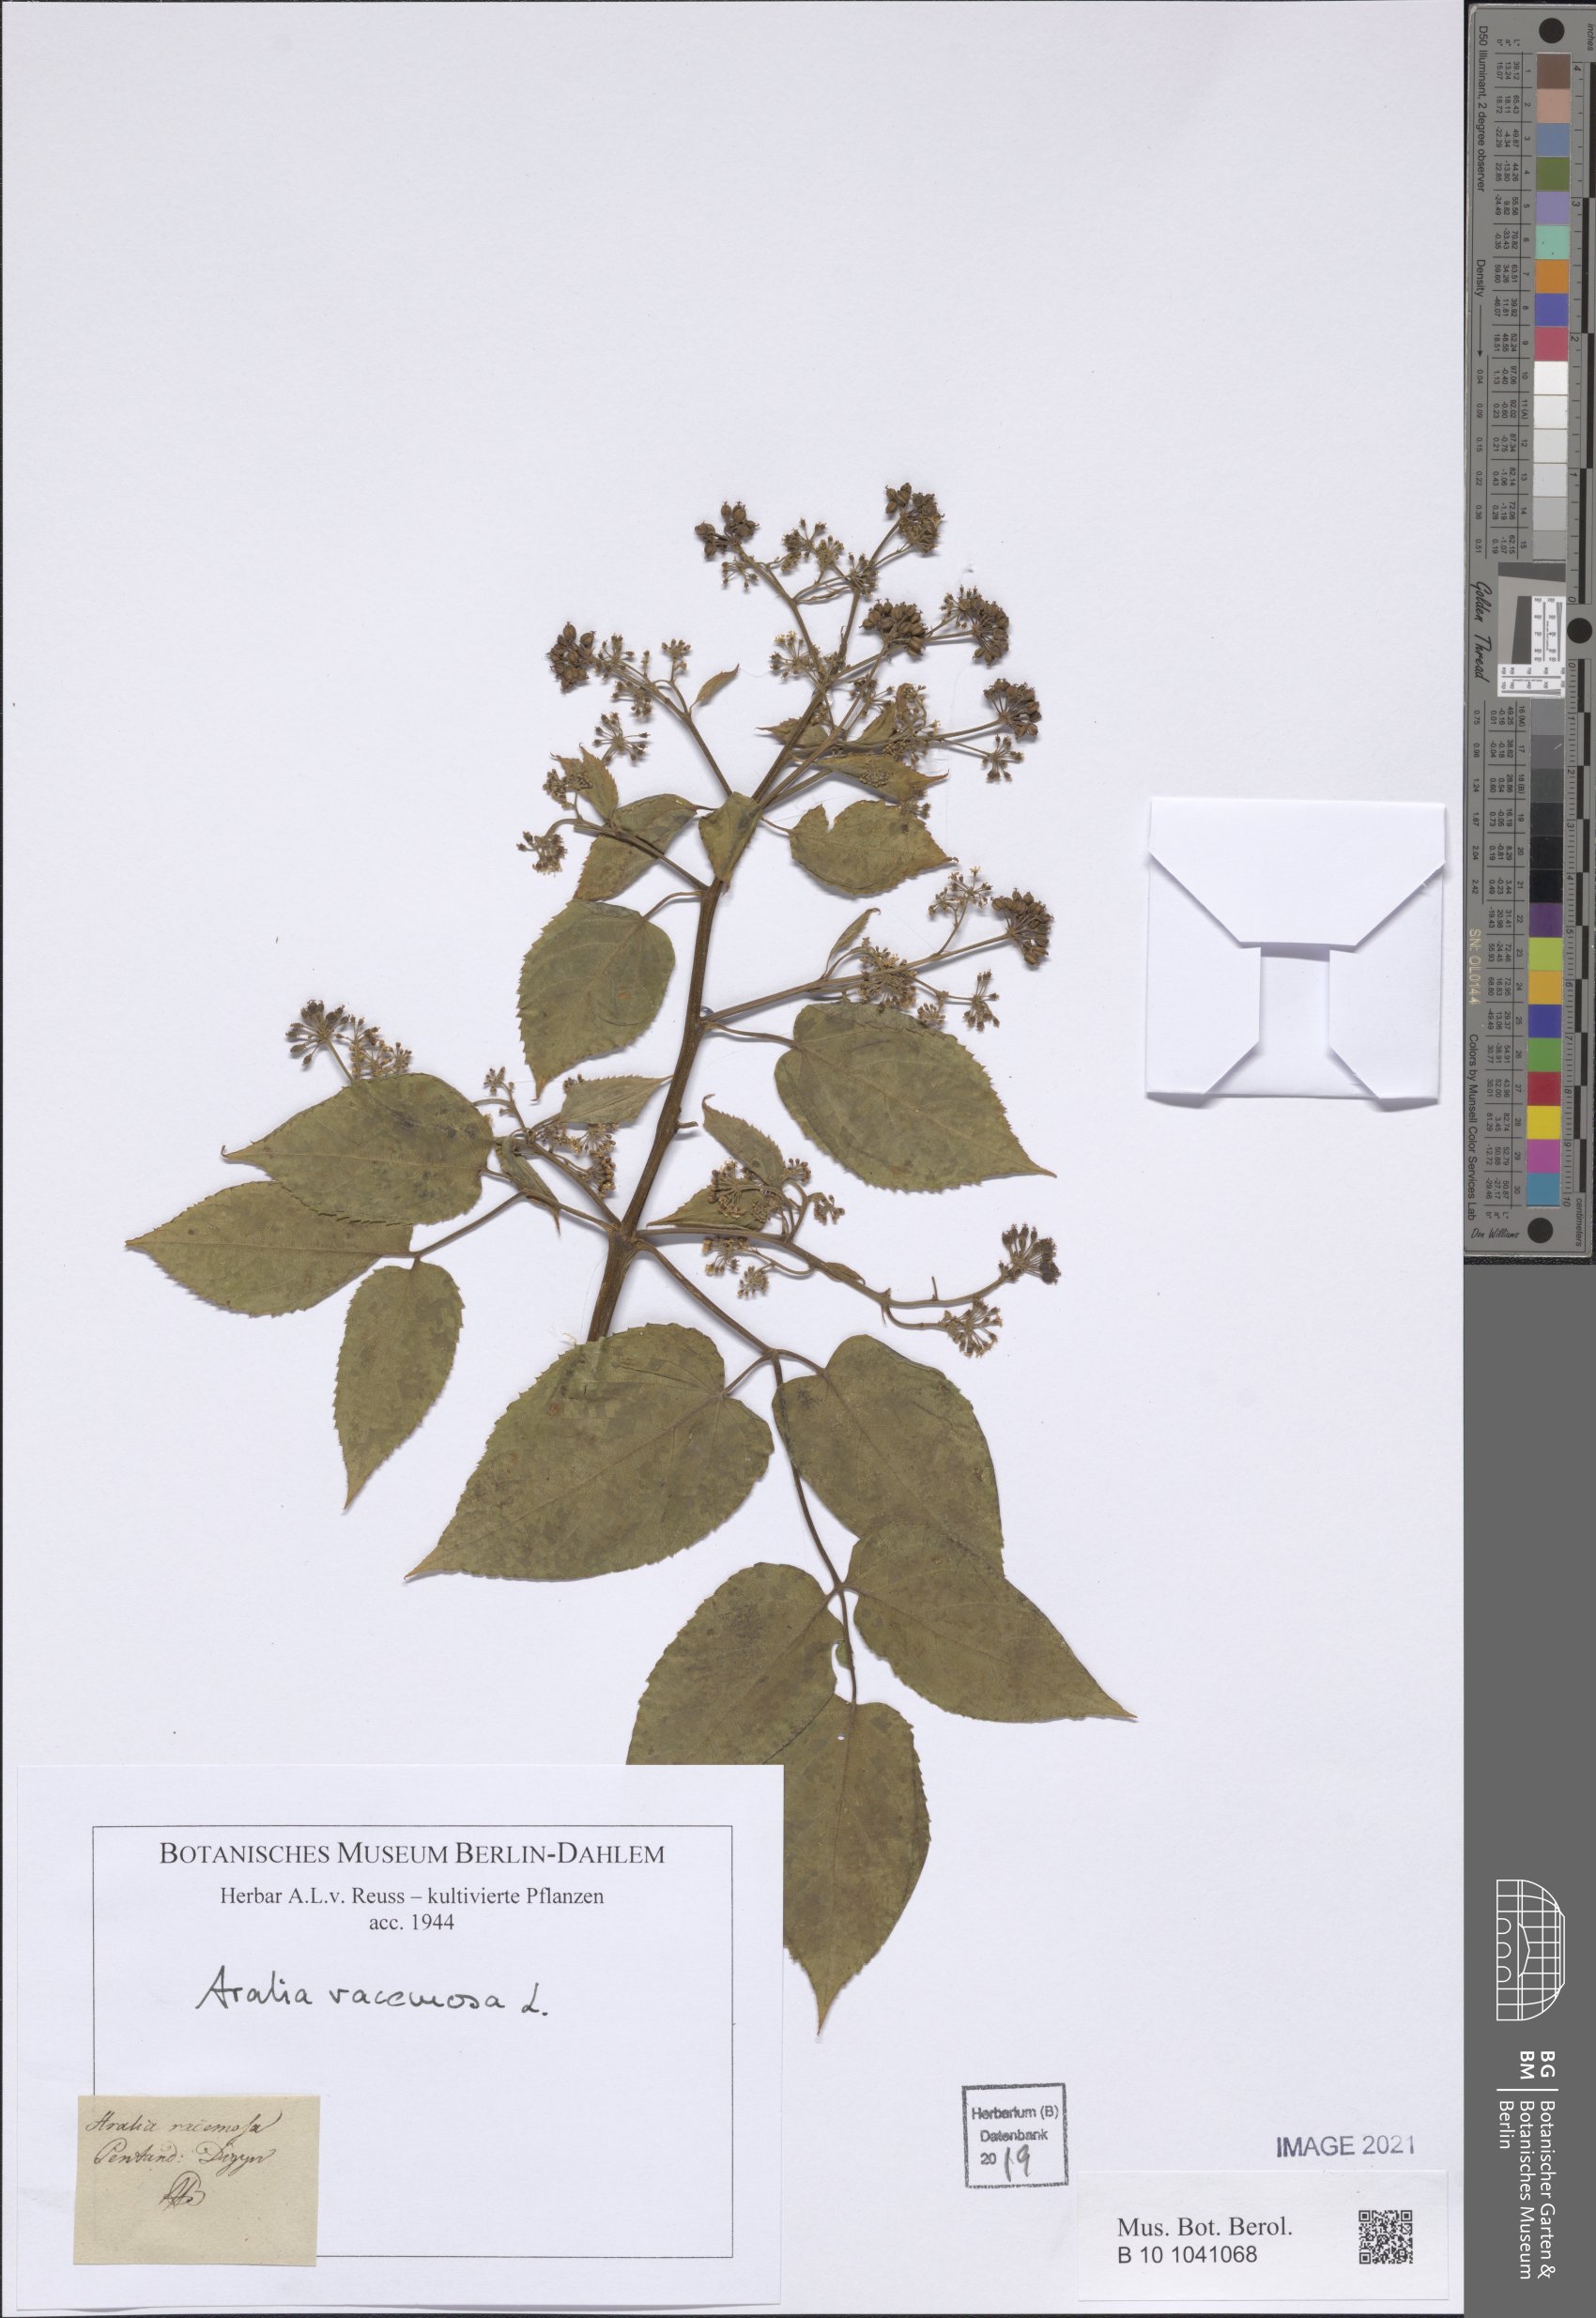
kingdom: Plantae
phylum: Tracheophyta
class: Magnoliopsida
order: Apiales
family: Araliaceae
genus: Aralia
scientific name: Aralia racemosa
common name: American-spikenard
